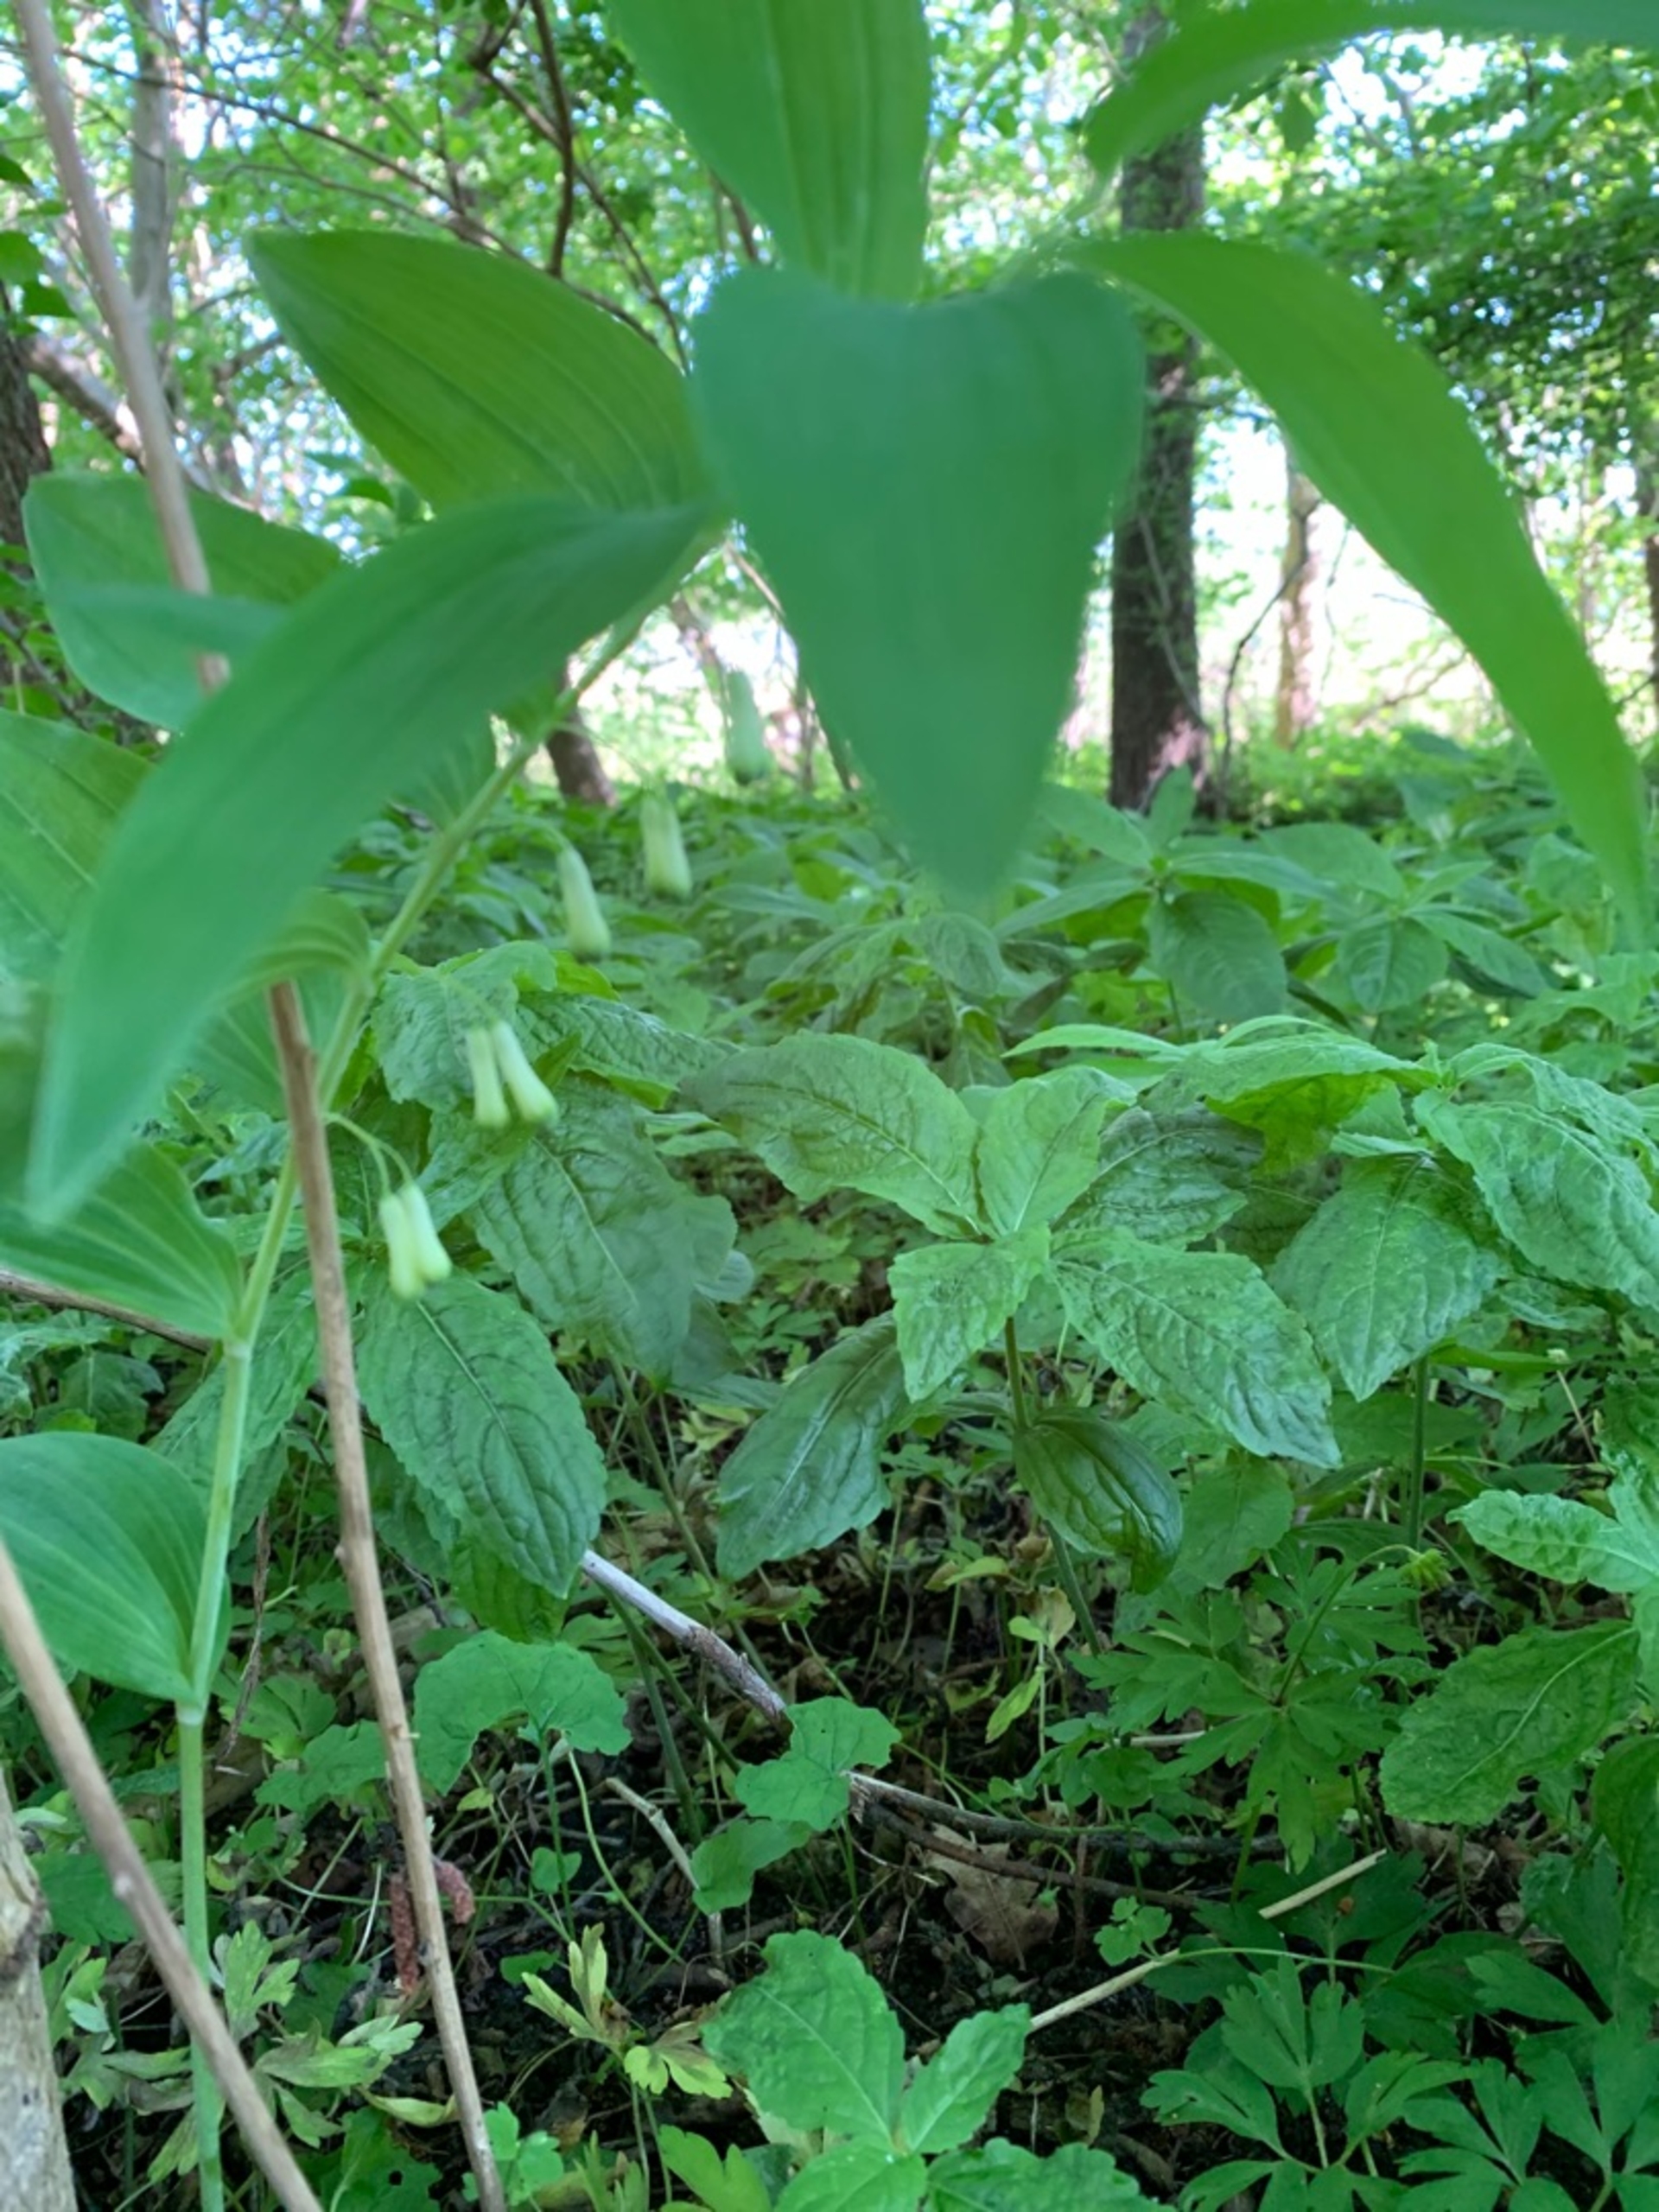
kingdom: Plantae
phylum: Tracheophyta
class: Liliopsida
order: Asparagales
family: Asparagaceae
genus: Polygonatum
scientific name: Polygonatum multiflorum
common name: Stor konval
